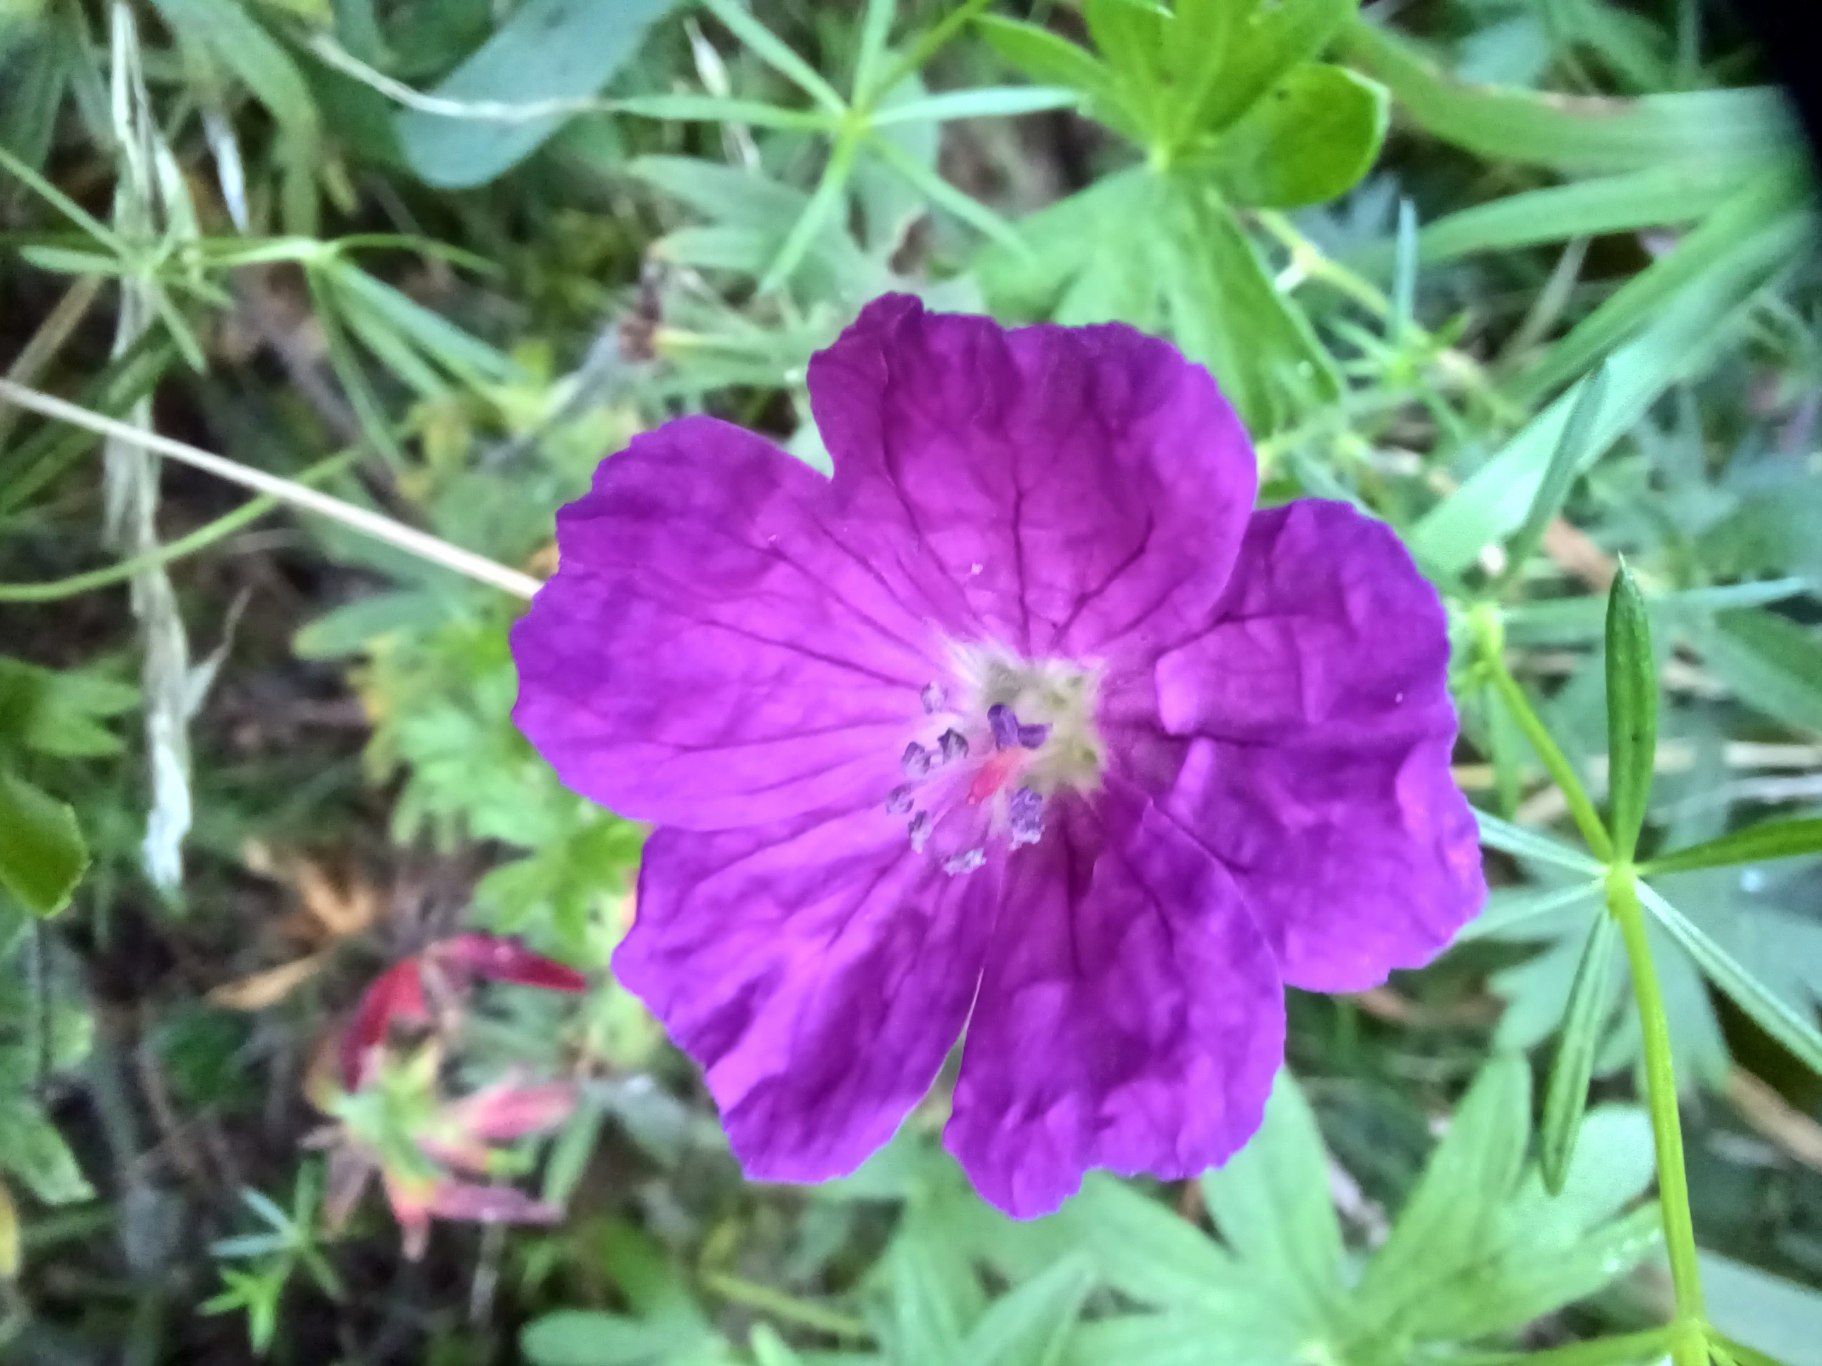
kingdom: Plantae
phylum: Tracheophyta
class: Magnoliopsida
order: Geraniales
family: Geraniaceae
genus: Geranium
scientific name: Geranium sanguineum
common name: Blodrød storkenæb
